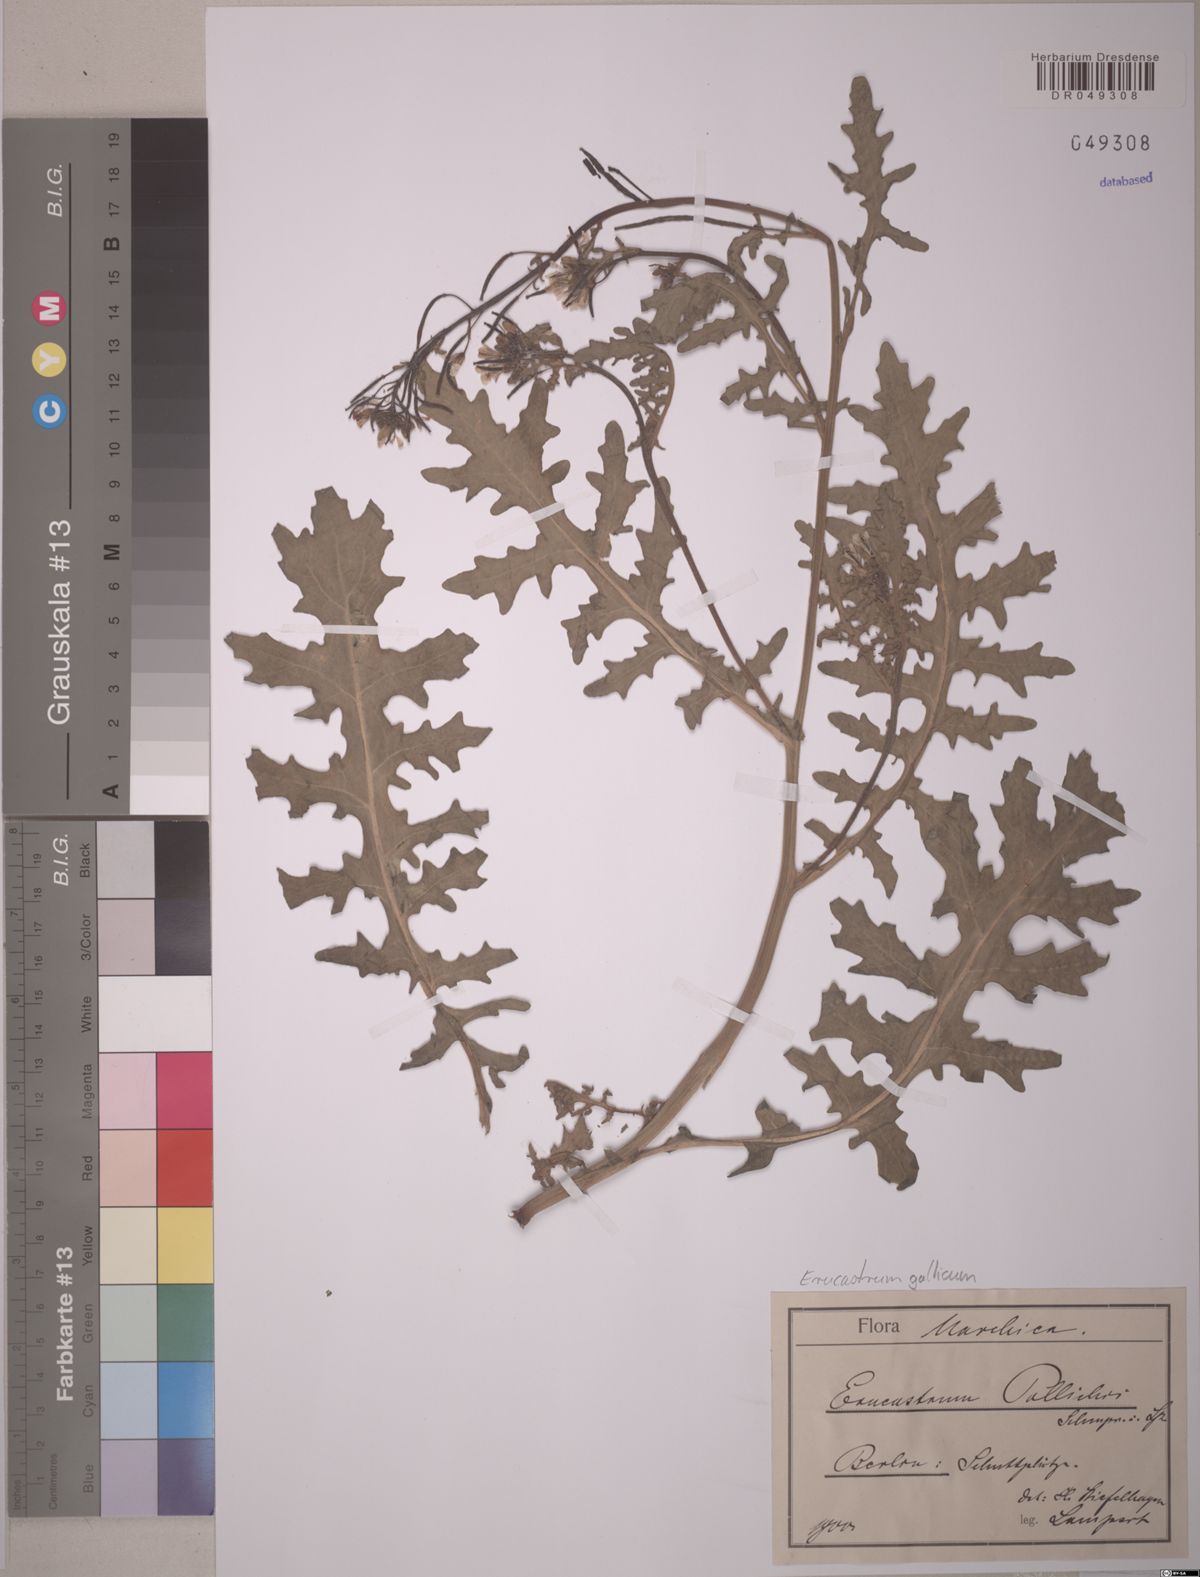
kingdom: Plantae
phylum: Tracheophyta
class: Magnoliopsida
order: Brassicales
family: Brassicaceae
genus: Erucastrum
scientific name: Erucastrum gallicum
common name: Hairy rocket
